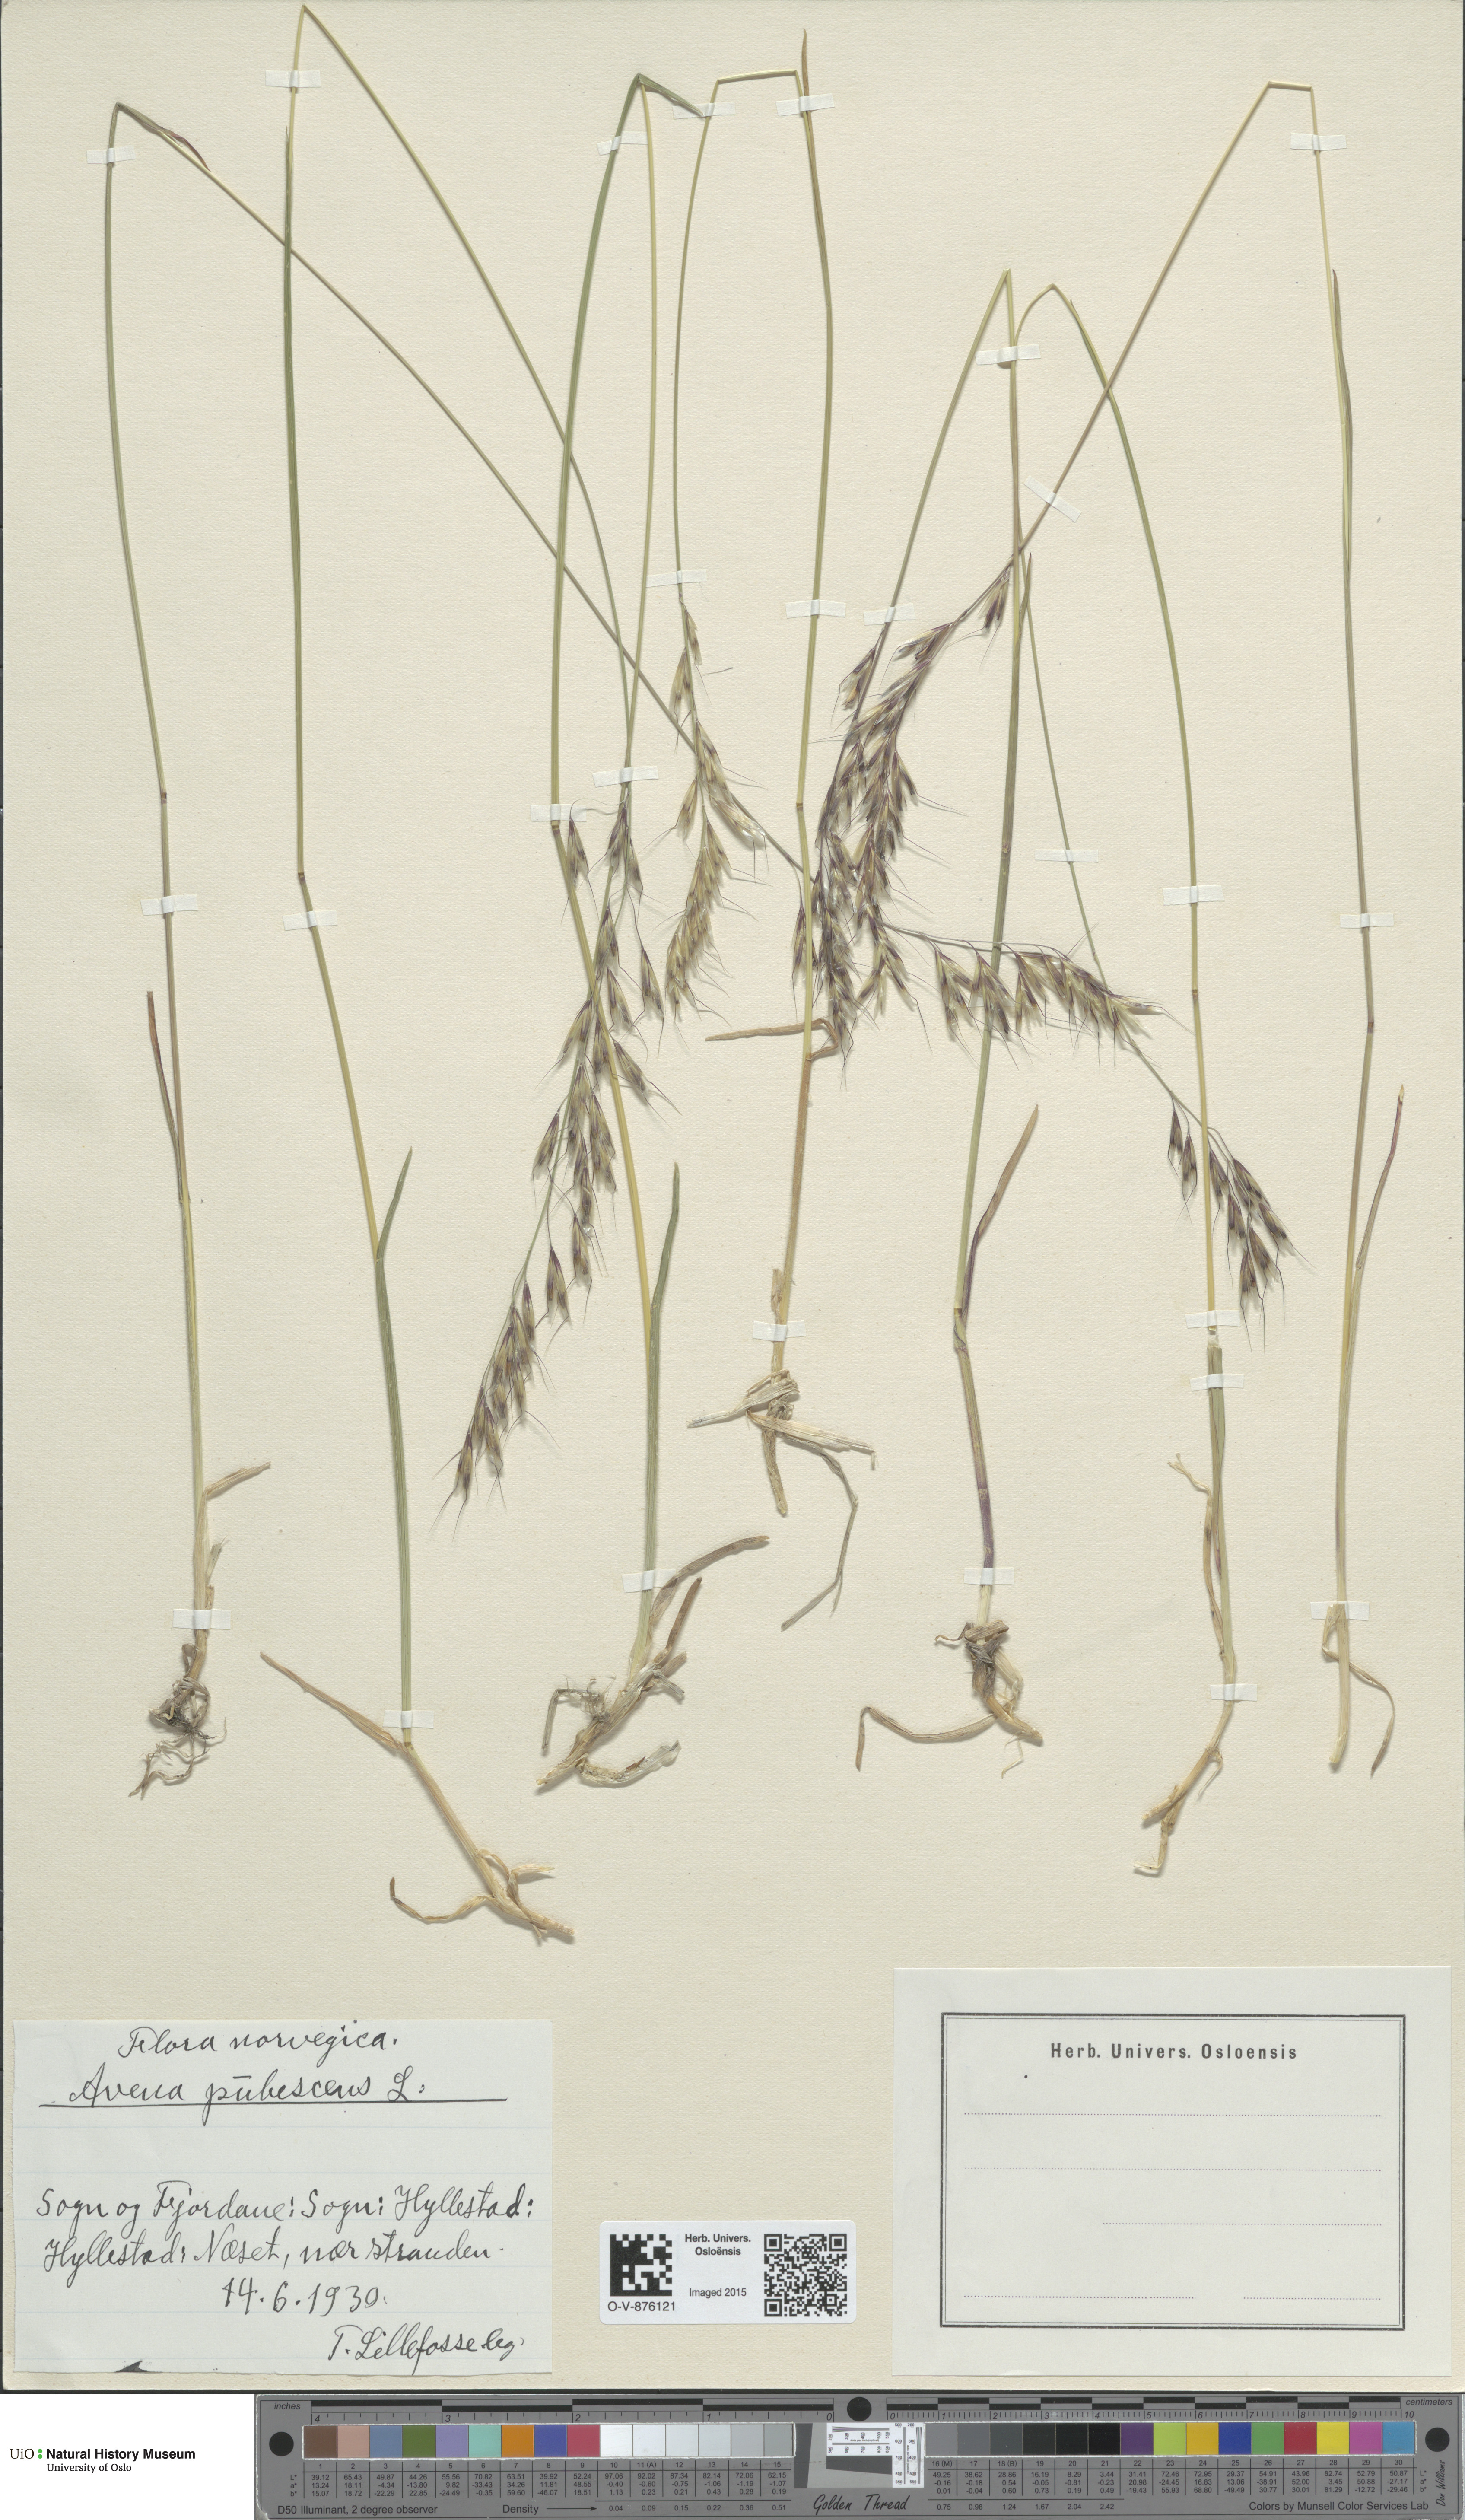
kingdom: Plantae
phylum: Tracheophyta
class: Liliopsida
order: Poales
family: Poaceae
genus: Avenula
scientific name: Avenula pubescens
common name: Downy alpine oatgrass
